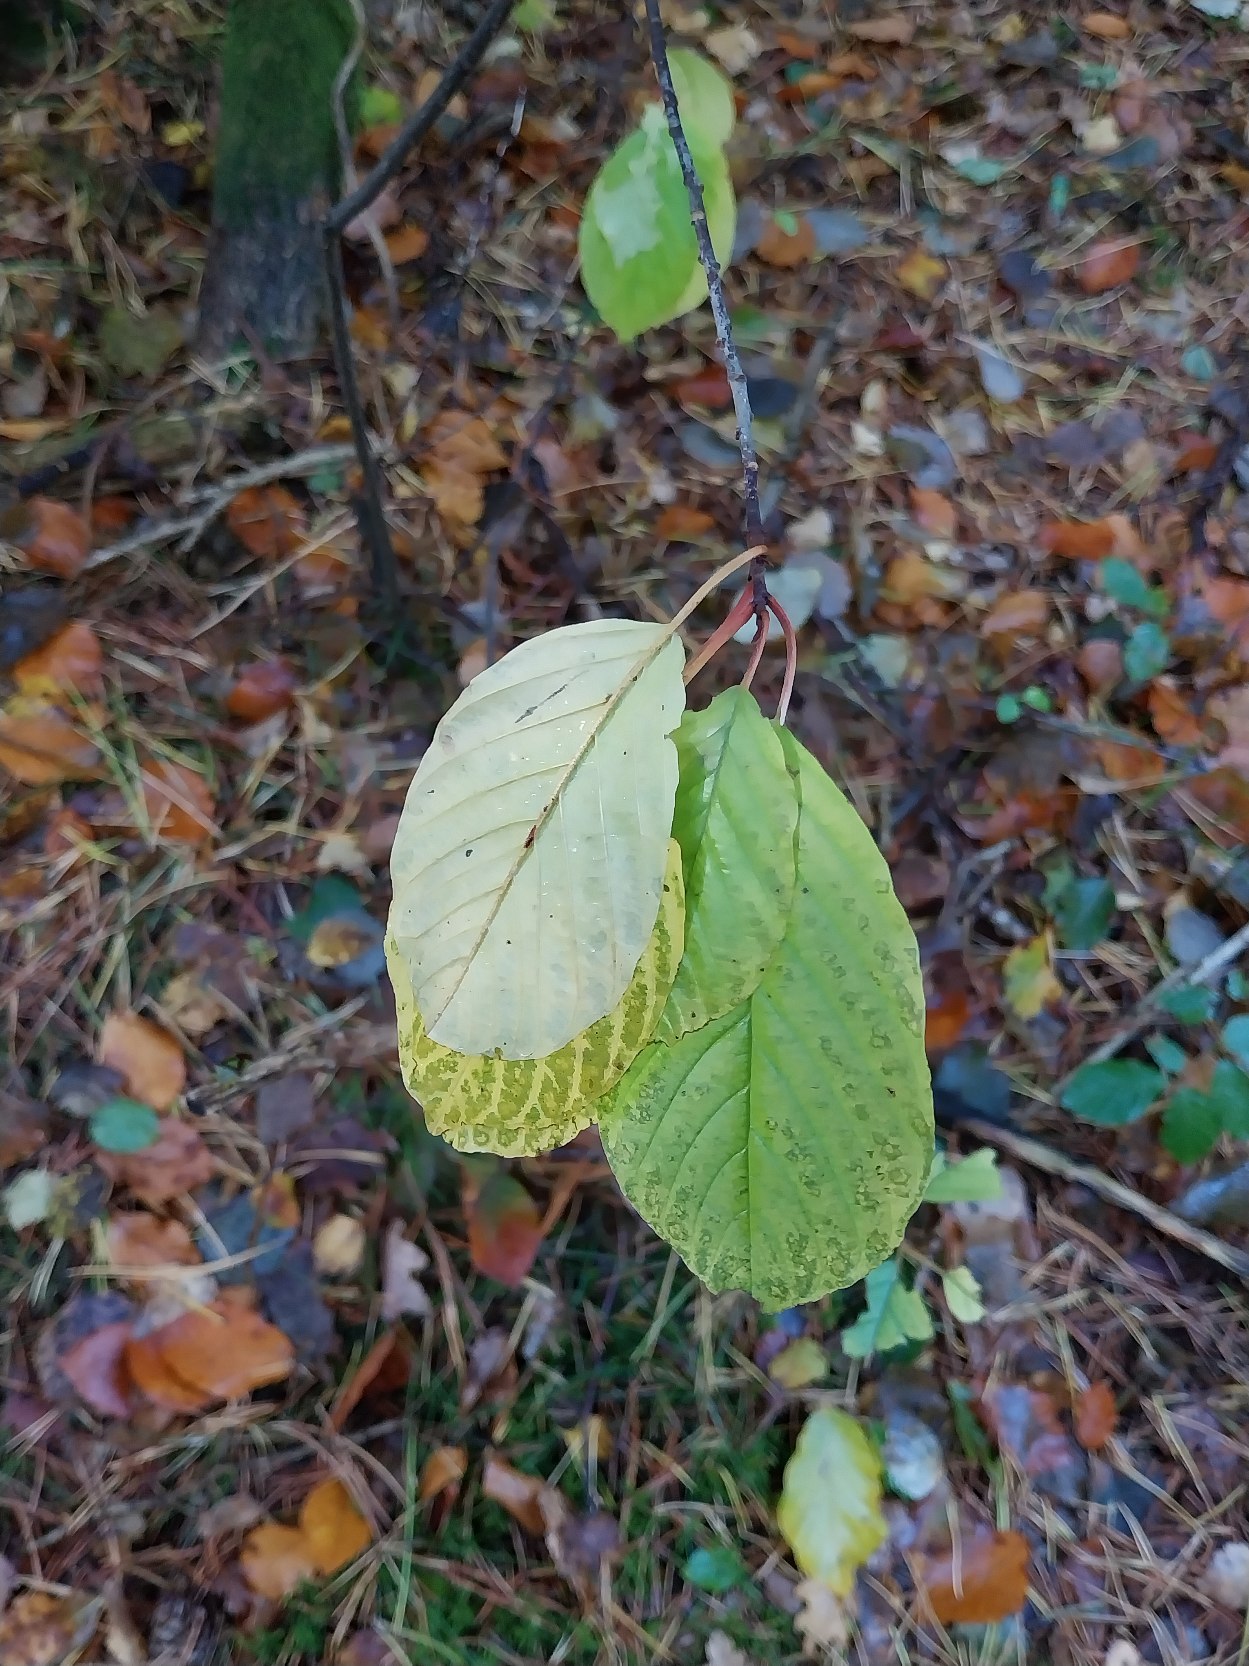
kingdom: Plantae
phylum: Tracheophyta
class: Magnoliopsida
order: Rosales
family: Rhamnaceae
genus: Frangula
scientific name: Frangula alnus
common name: Tørst
